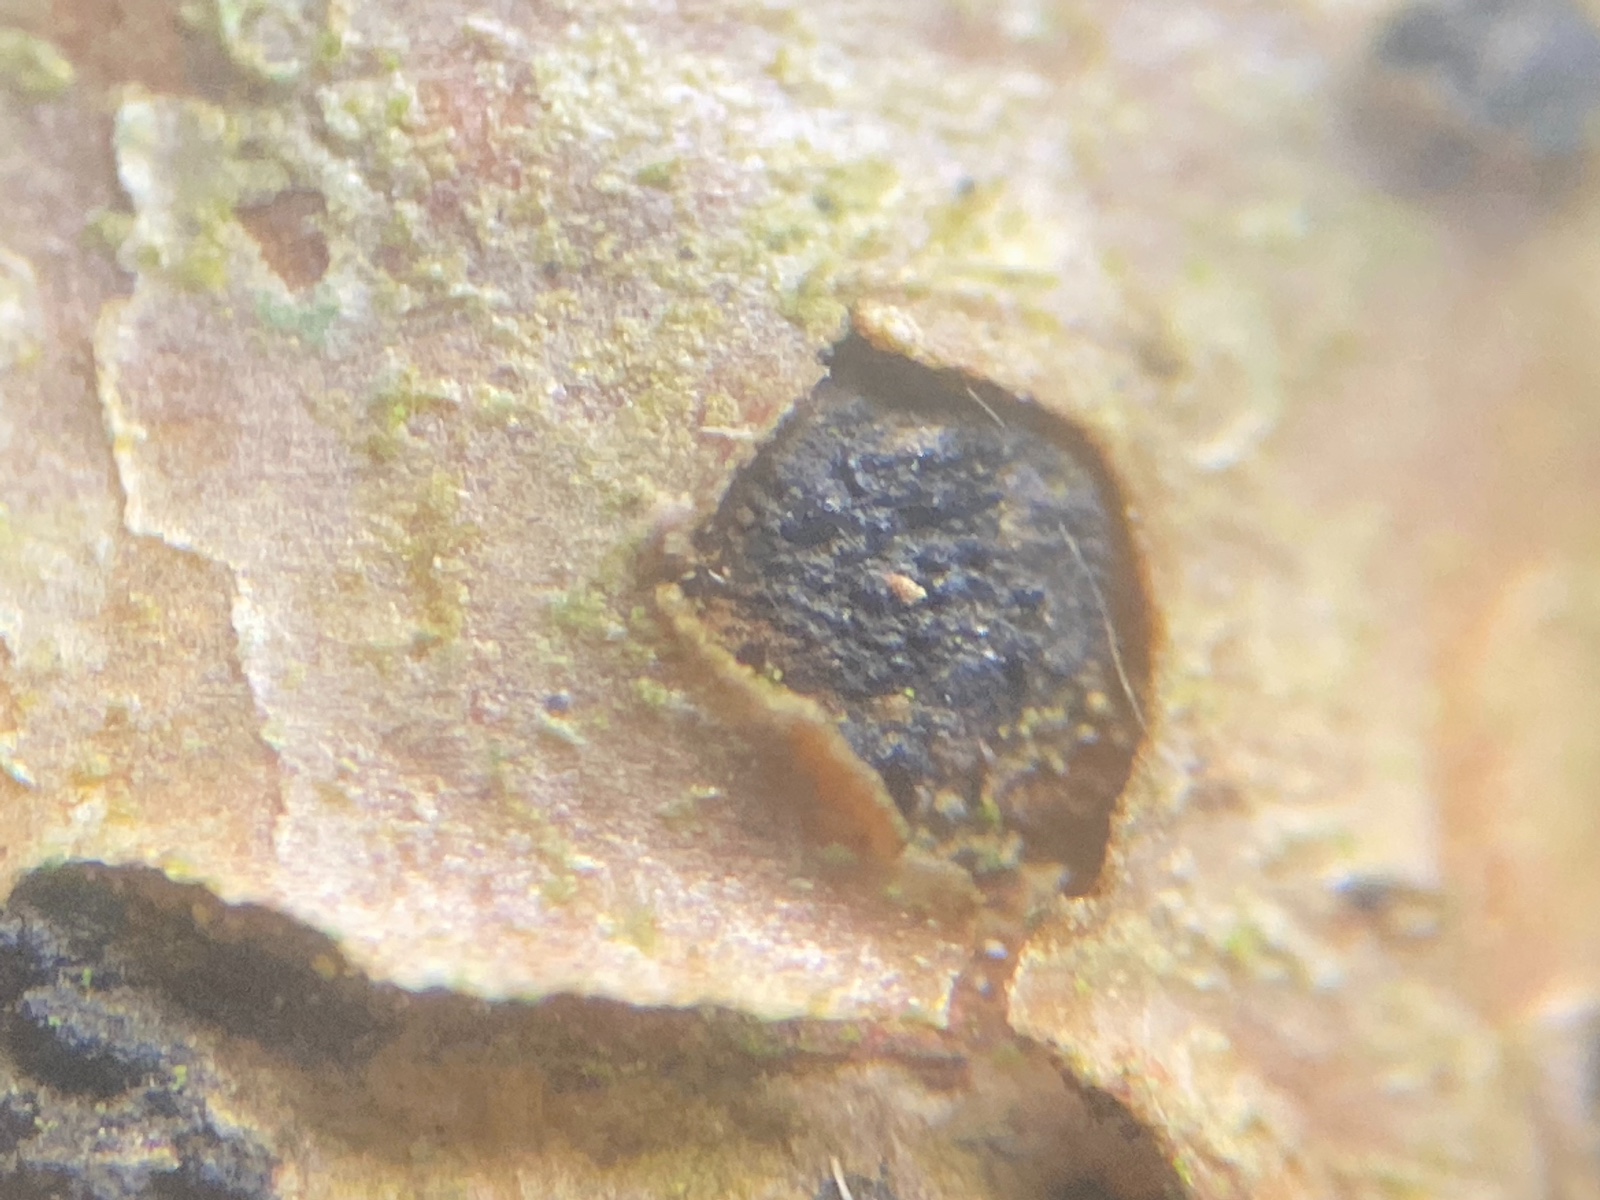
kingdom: Fungi
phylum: Ascomycota
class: Sordariomycetes
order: Diaporthales
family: Diaporthaceae
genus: Diaporthe
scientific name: Diaporthe
